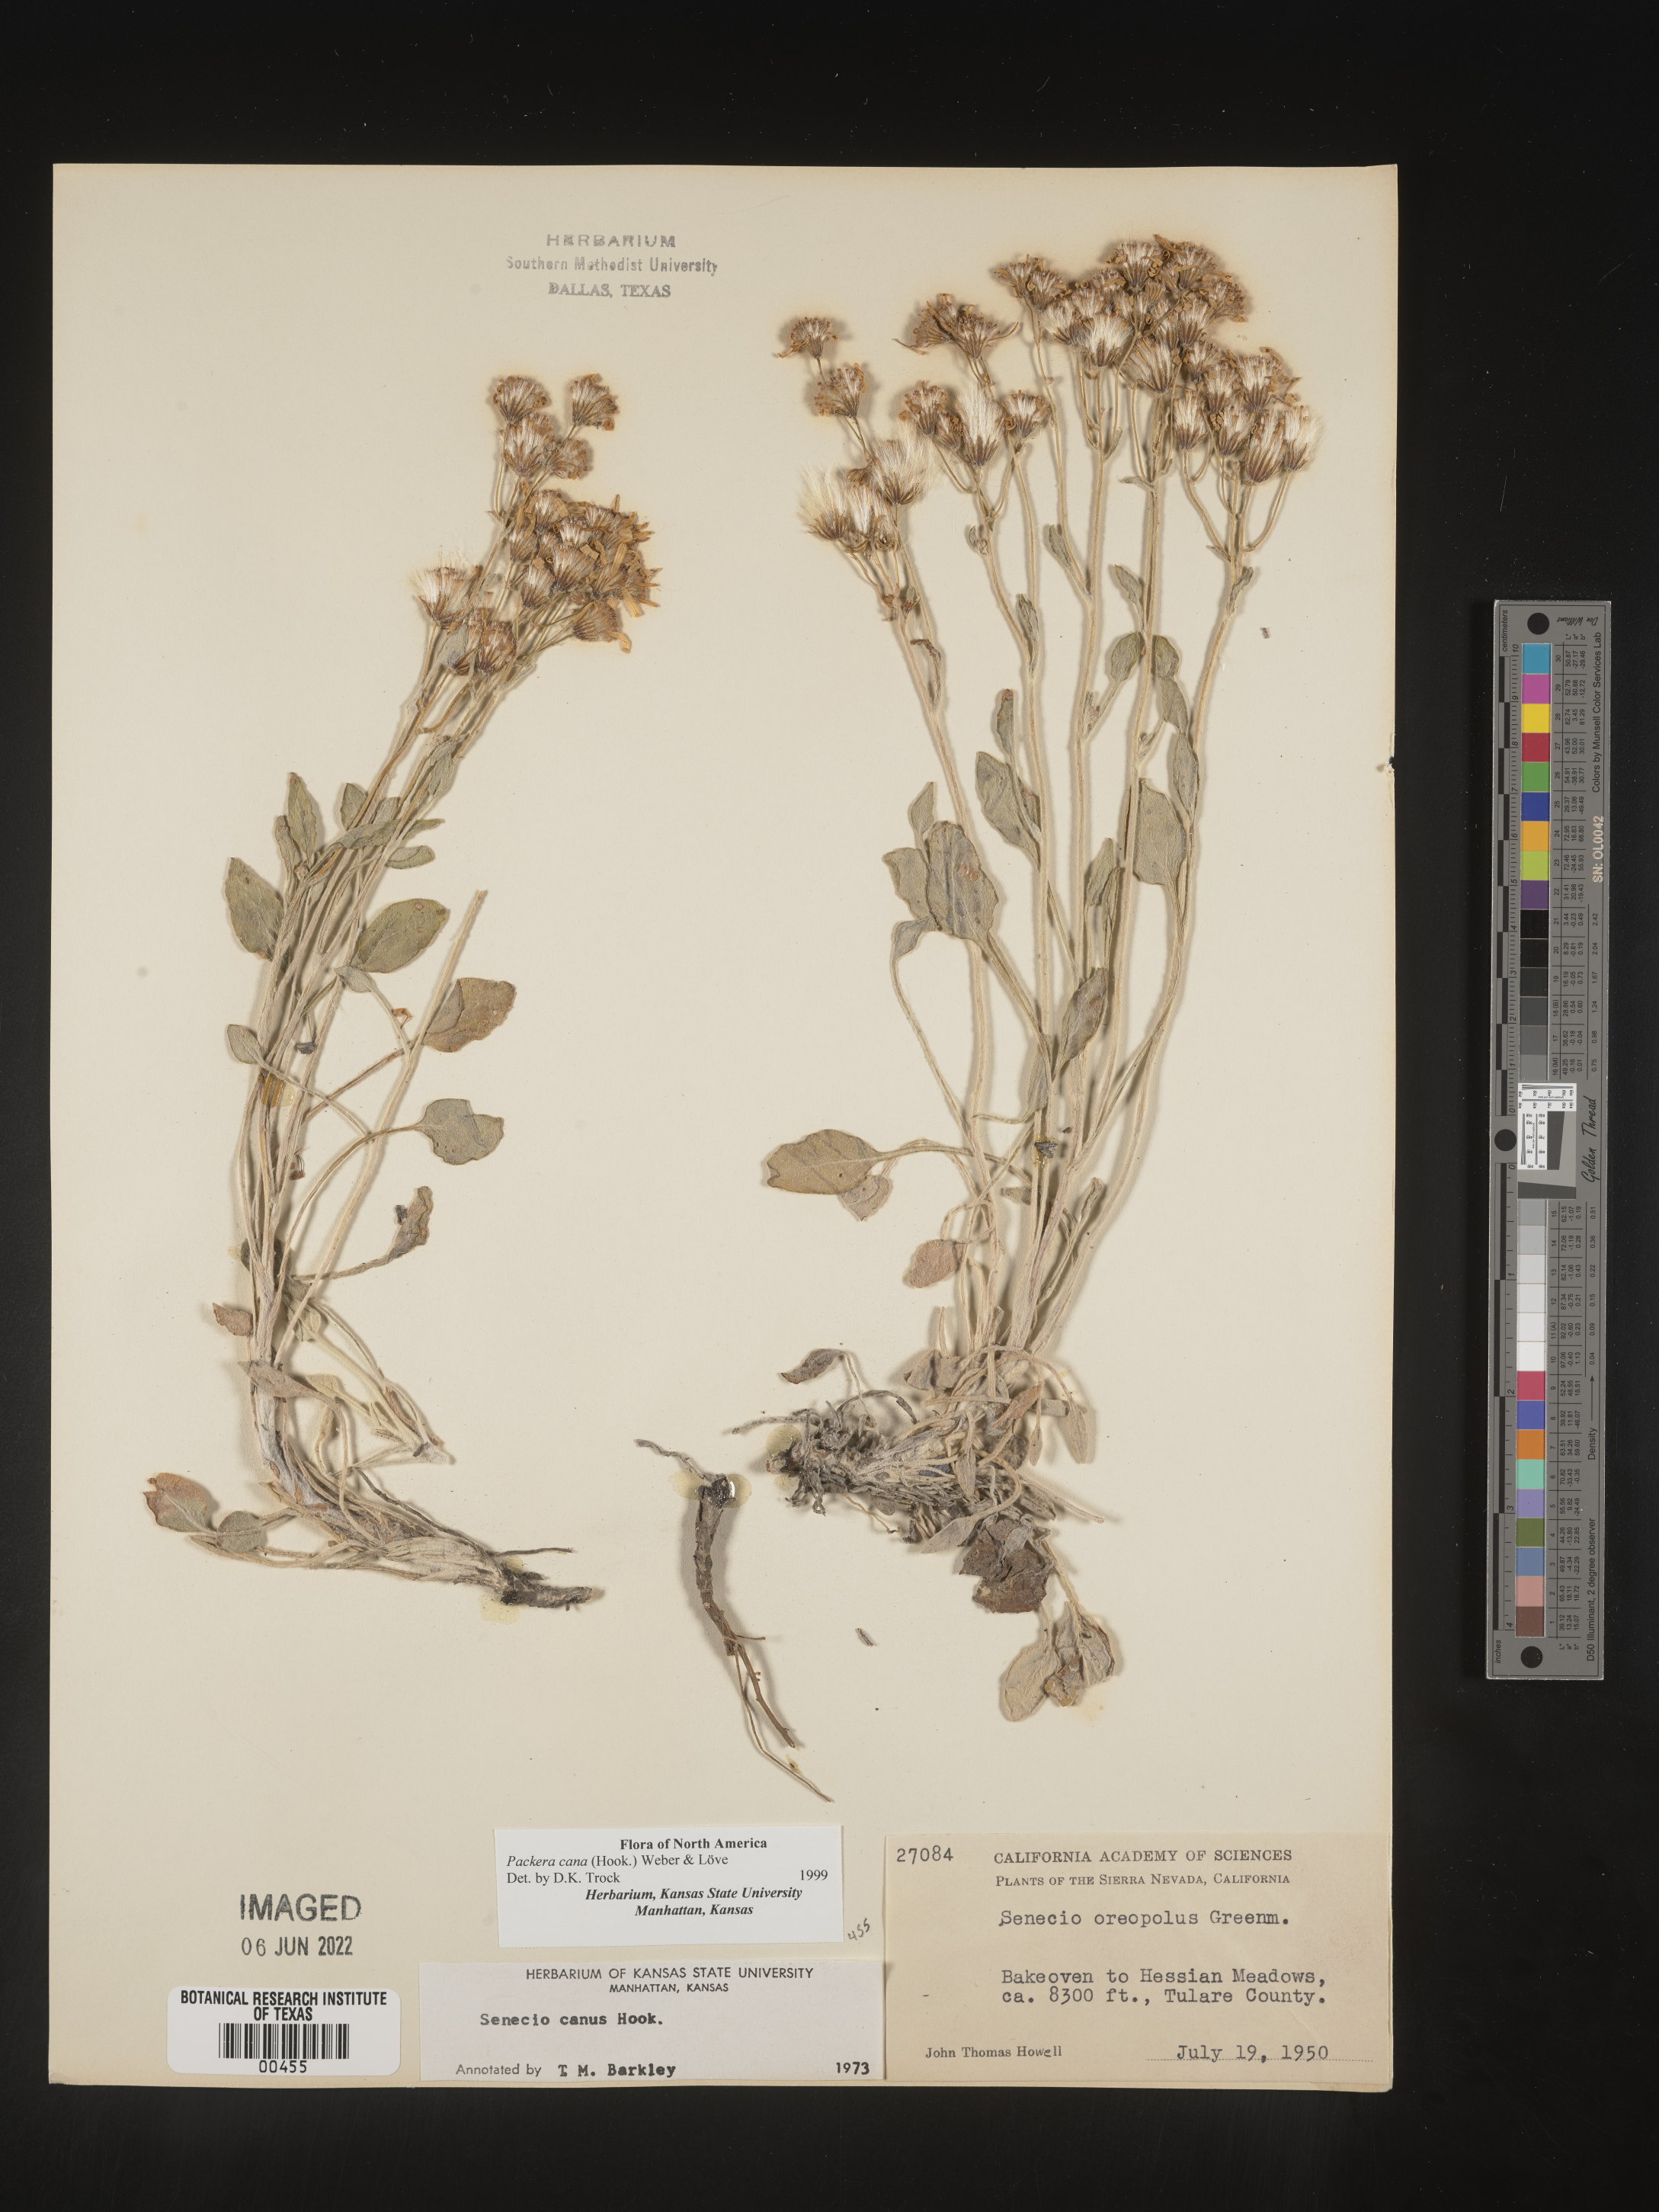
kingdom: Plantae
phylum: Tracheophyta
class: Magnoliopsida
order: Asterales
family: Asteraceae
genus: Packera
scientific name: Packera cana
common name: Woolly groundsel
